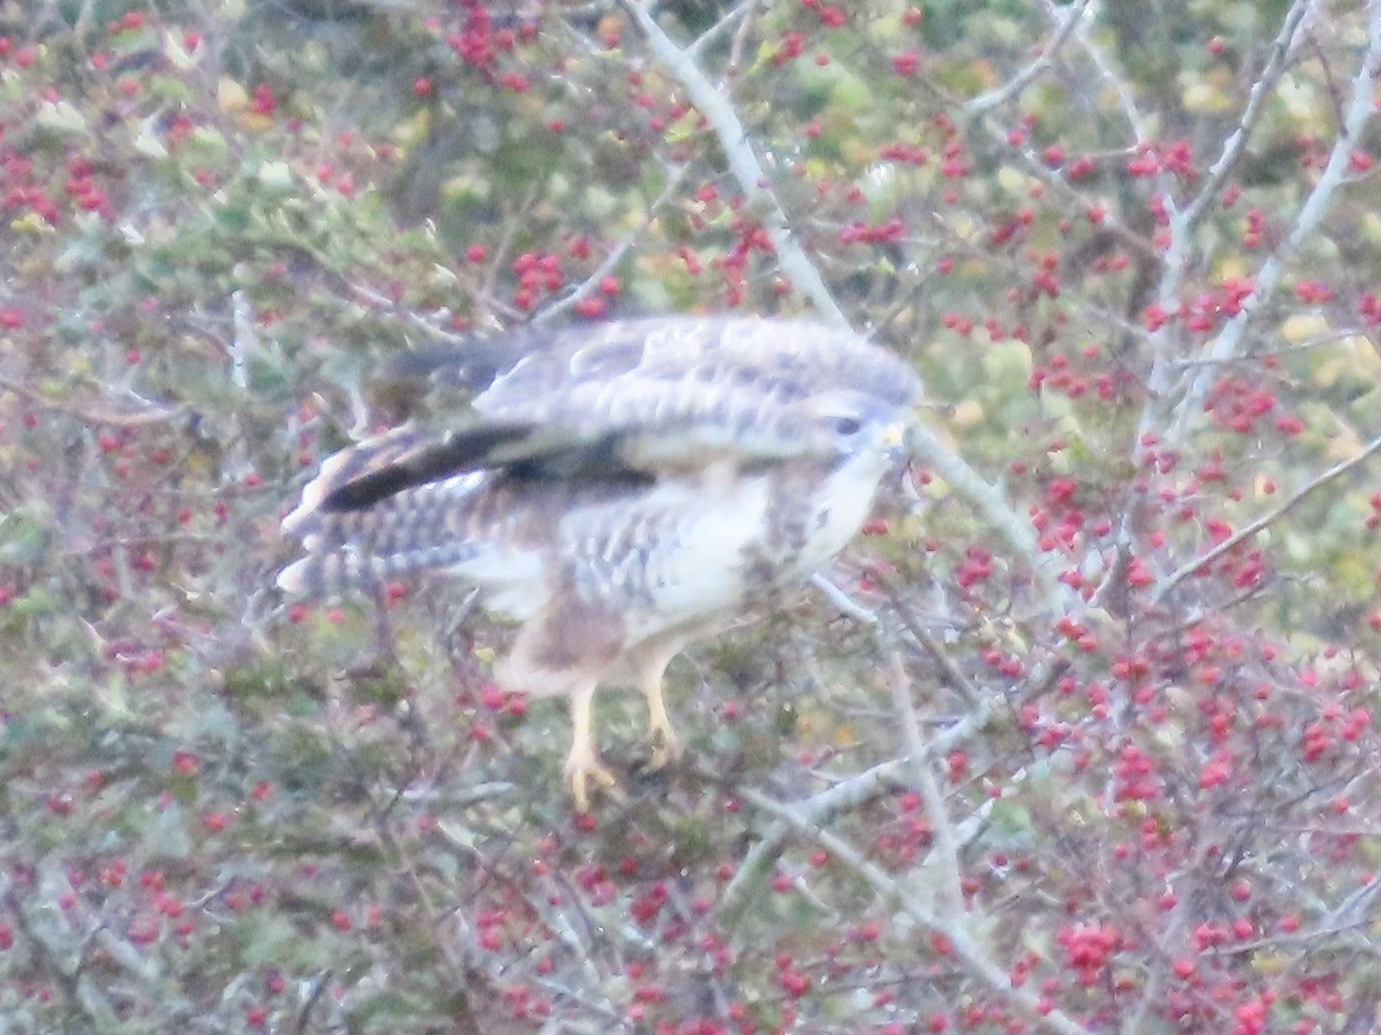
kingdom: Animalia
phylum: Chordata
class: Aves
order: Accipitriformes
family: Accipitridae
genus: Buteo
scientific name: Buteo buteo
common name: Musvåge
